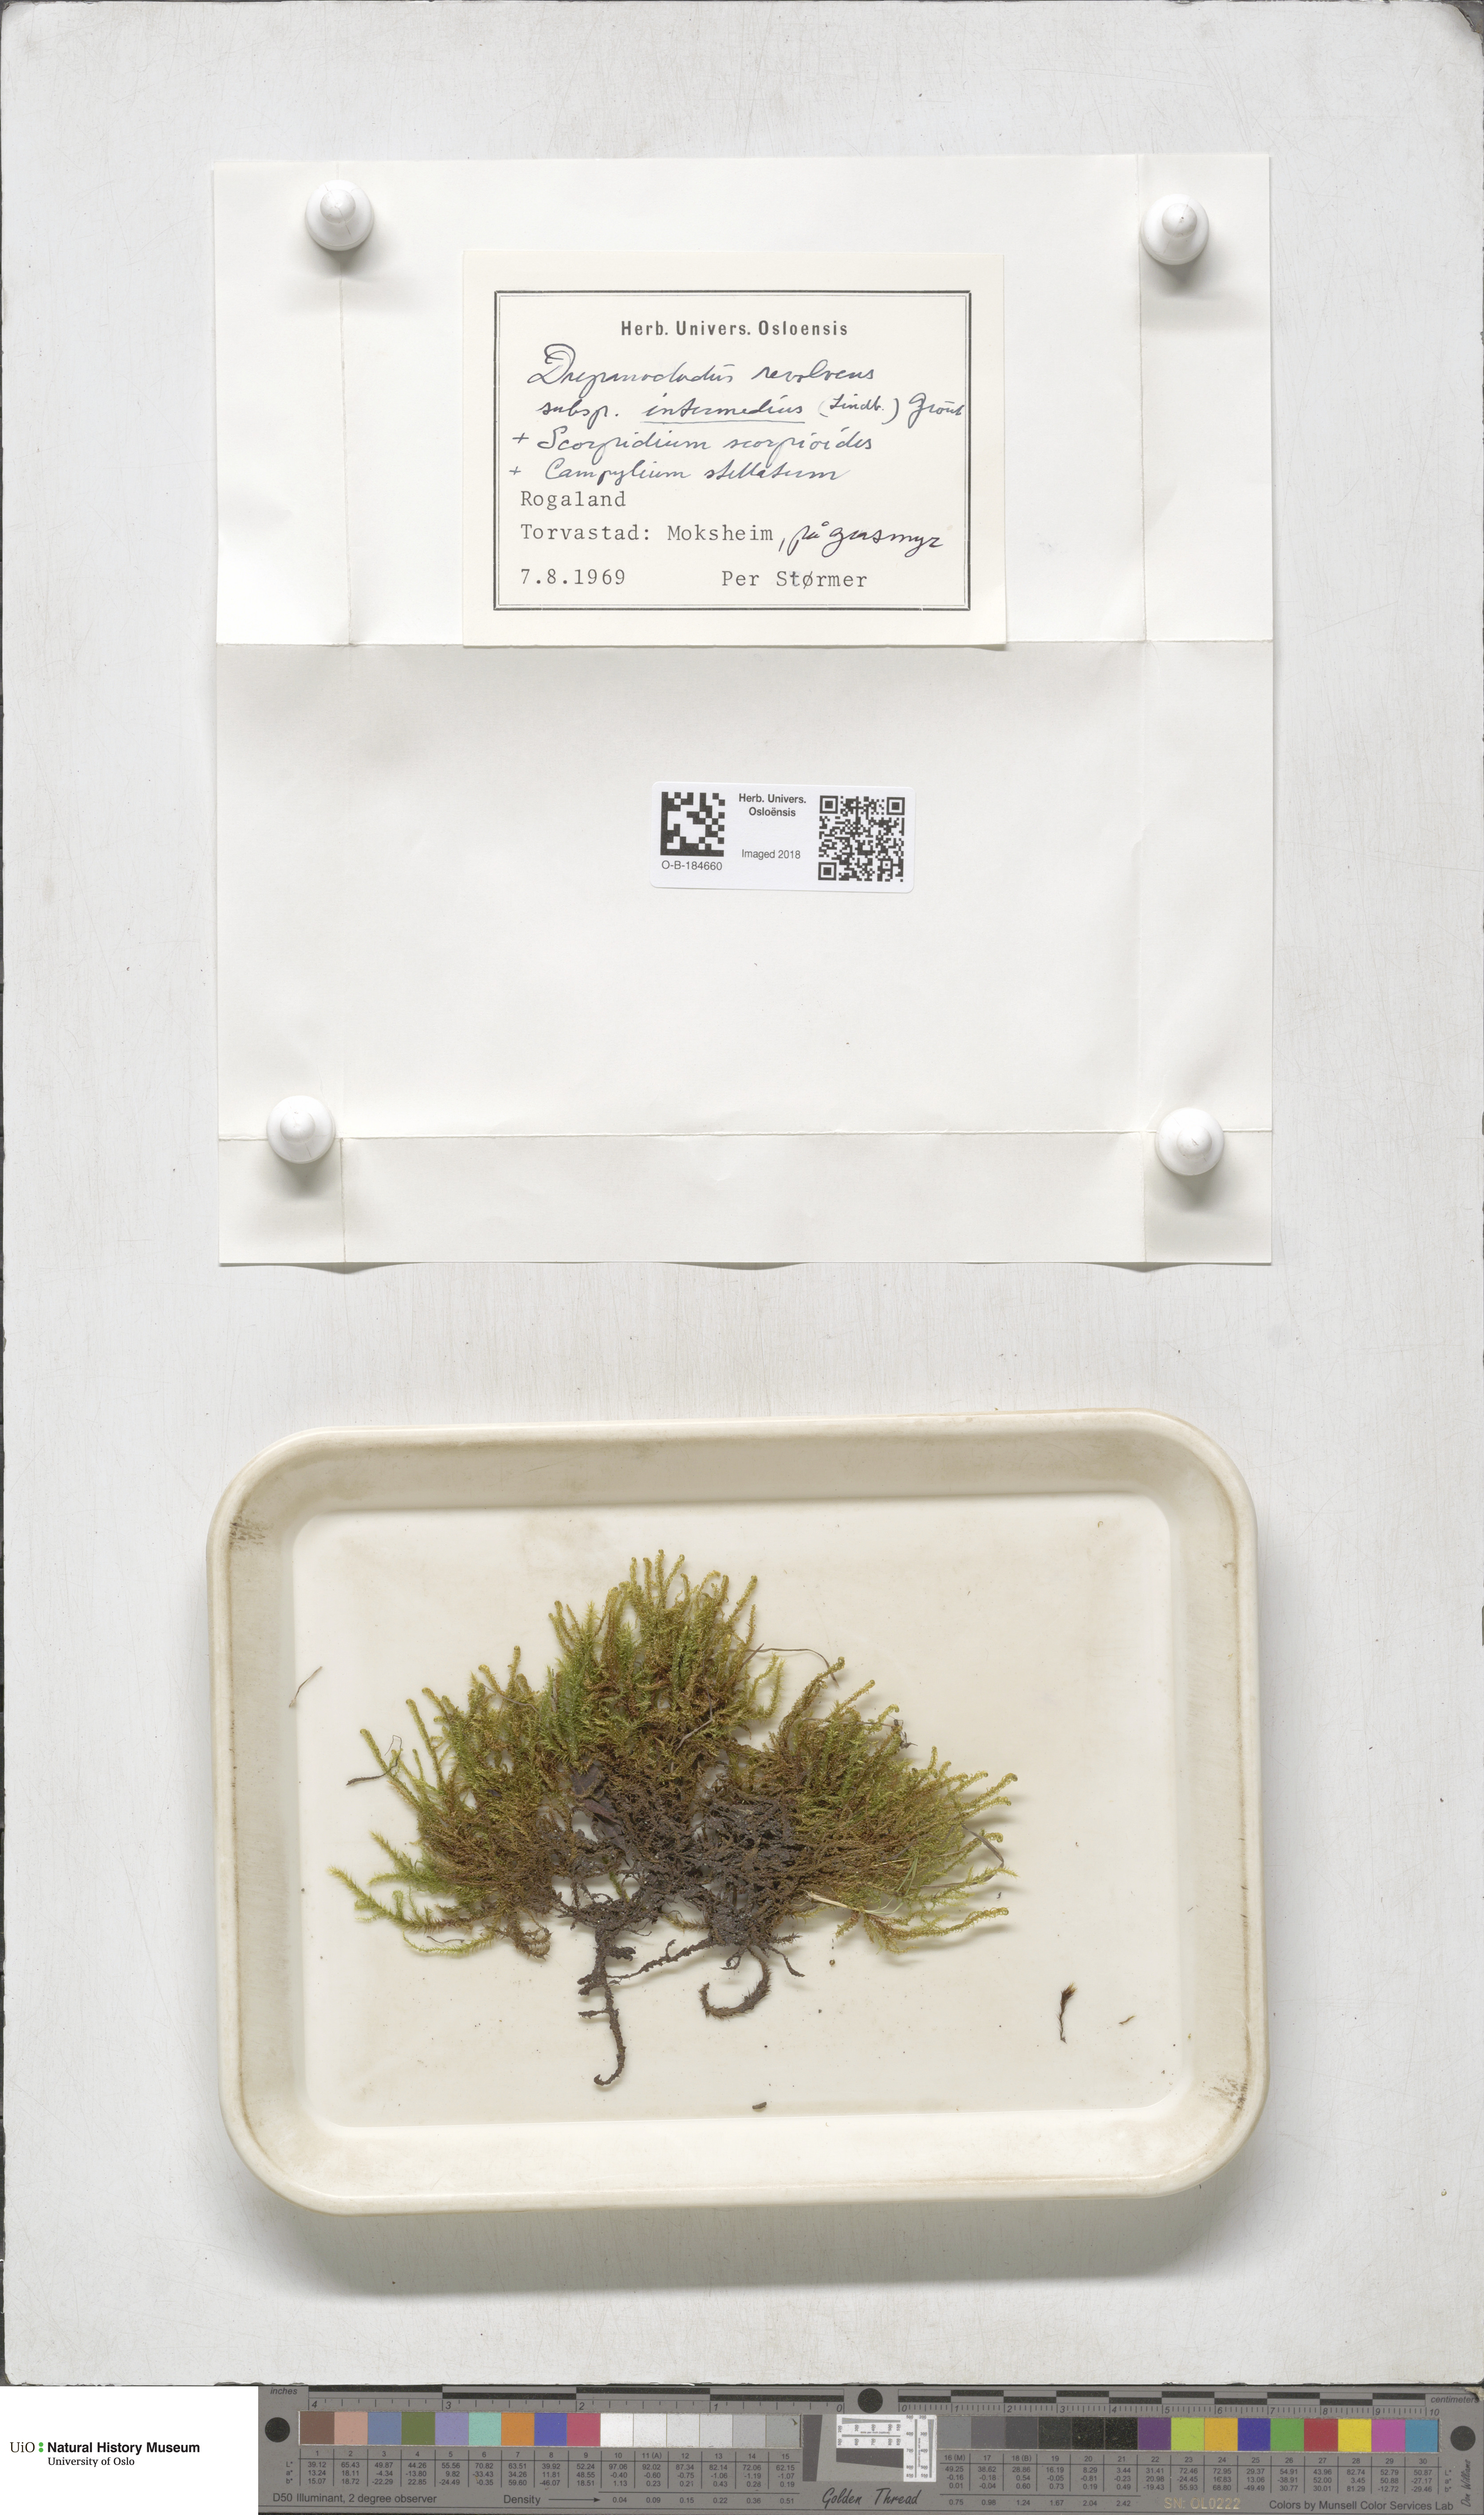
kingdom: Plantae
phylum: Bryophyta
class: Bryopsida
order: Hypnales
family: Scorpidiaceae
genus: Scorpidium
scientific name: Scorpidium cossonii
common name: Cosson's hook moss
